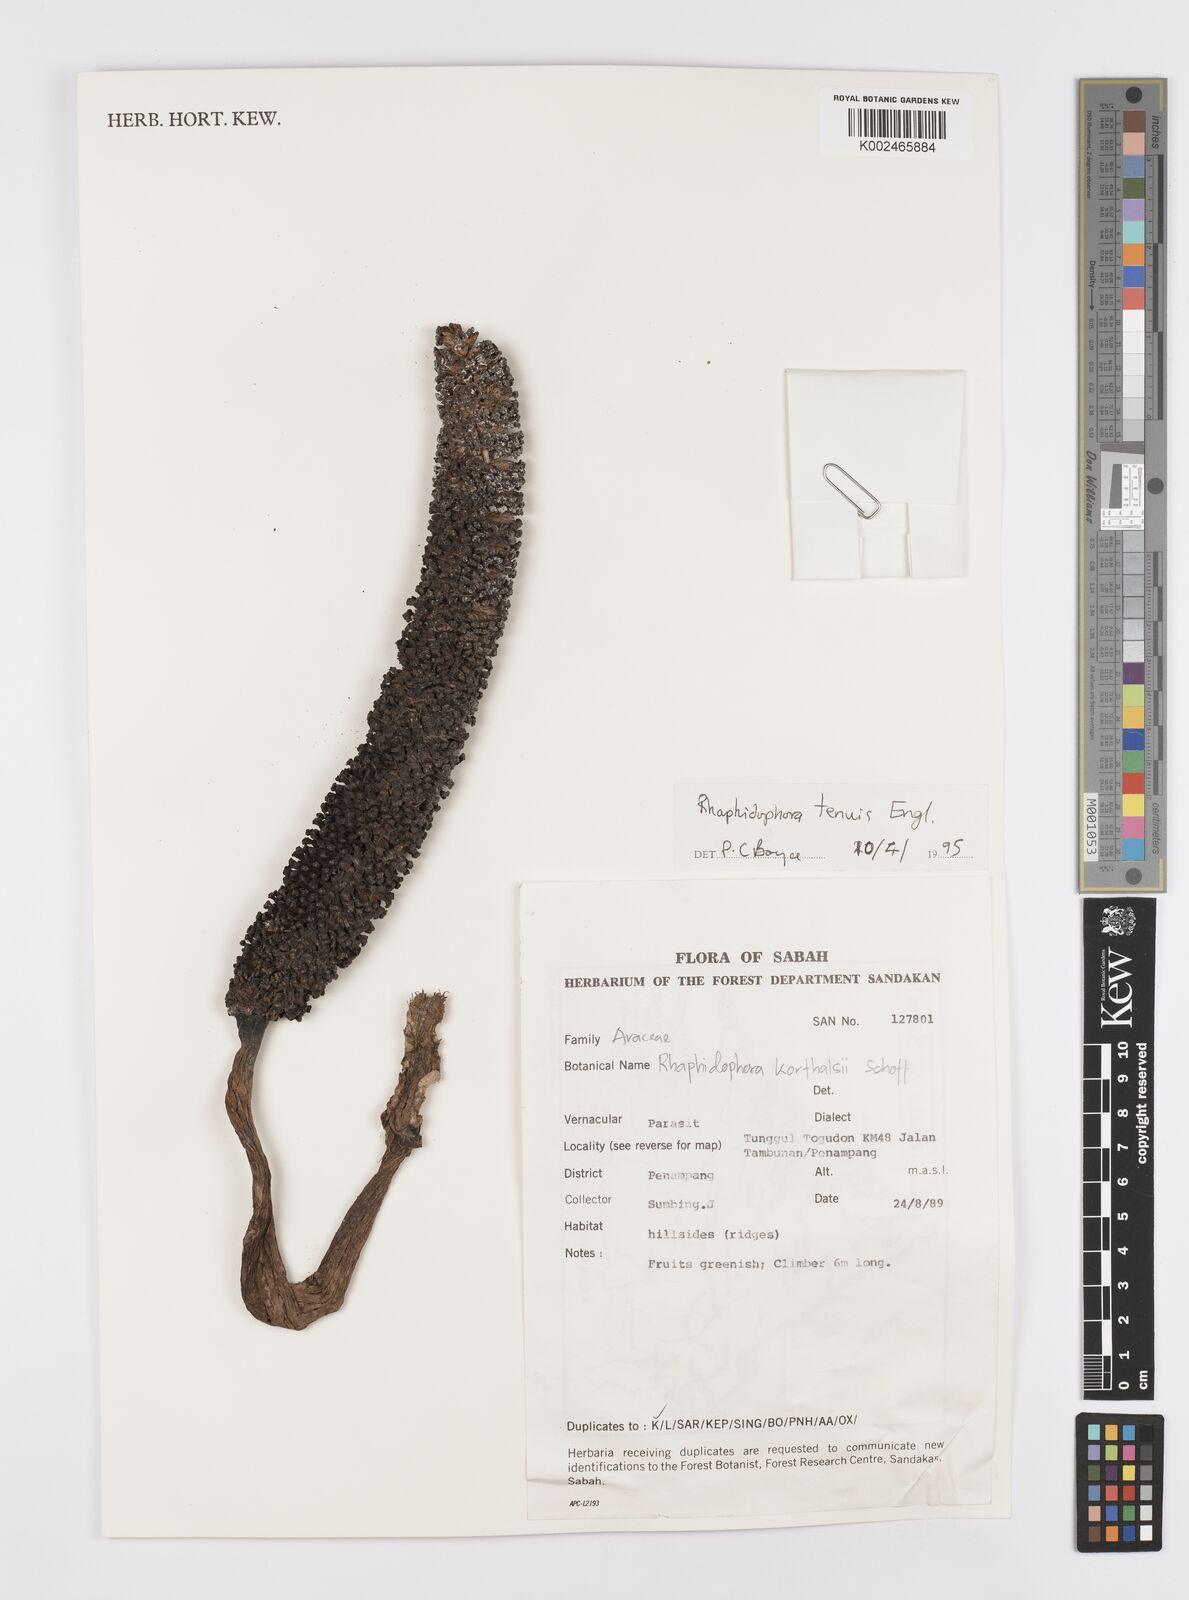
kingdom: Plantae
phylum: Tracheophyta
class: Liliopsida
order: Alismatales
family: Araceae
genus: Rhaphidophora
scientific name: Rhaphidophora korthalsii
